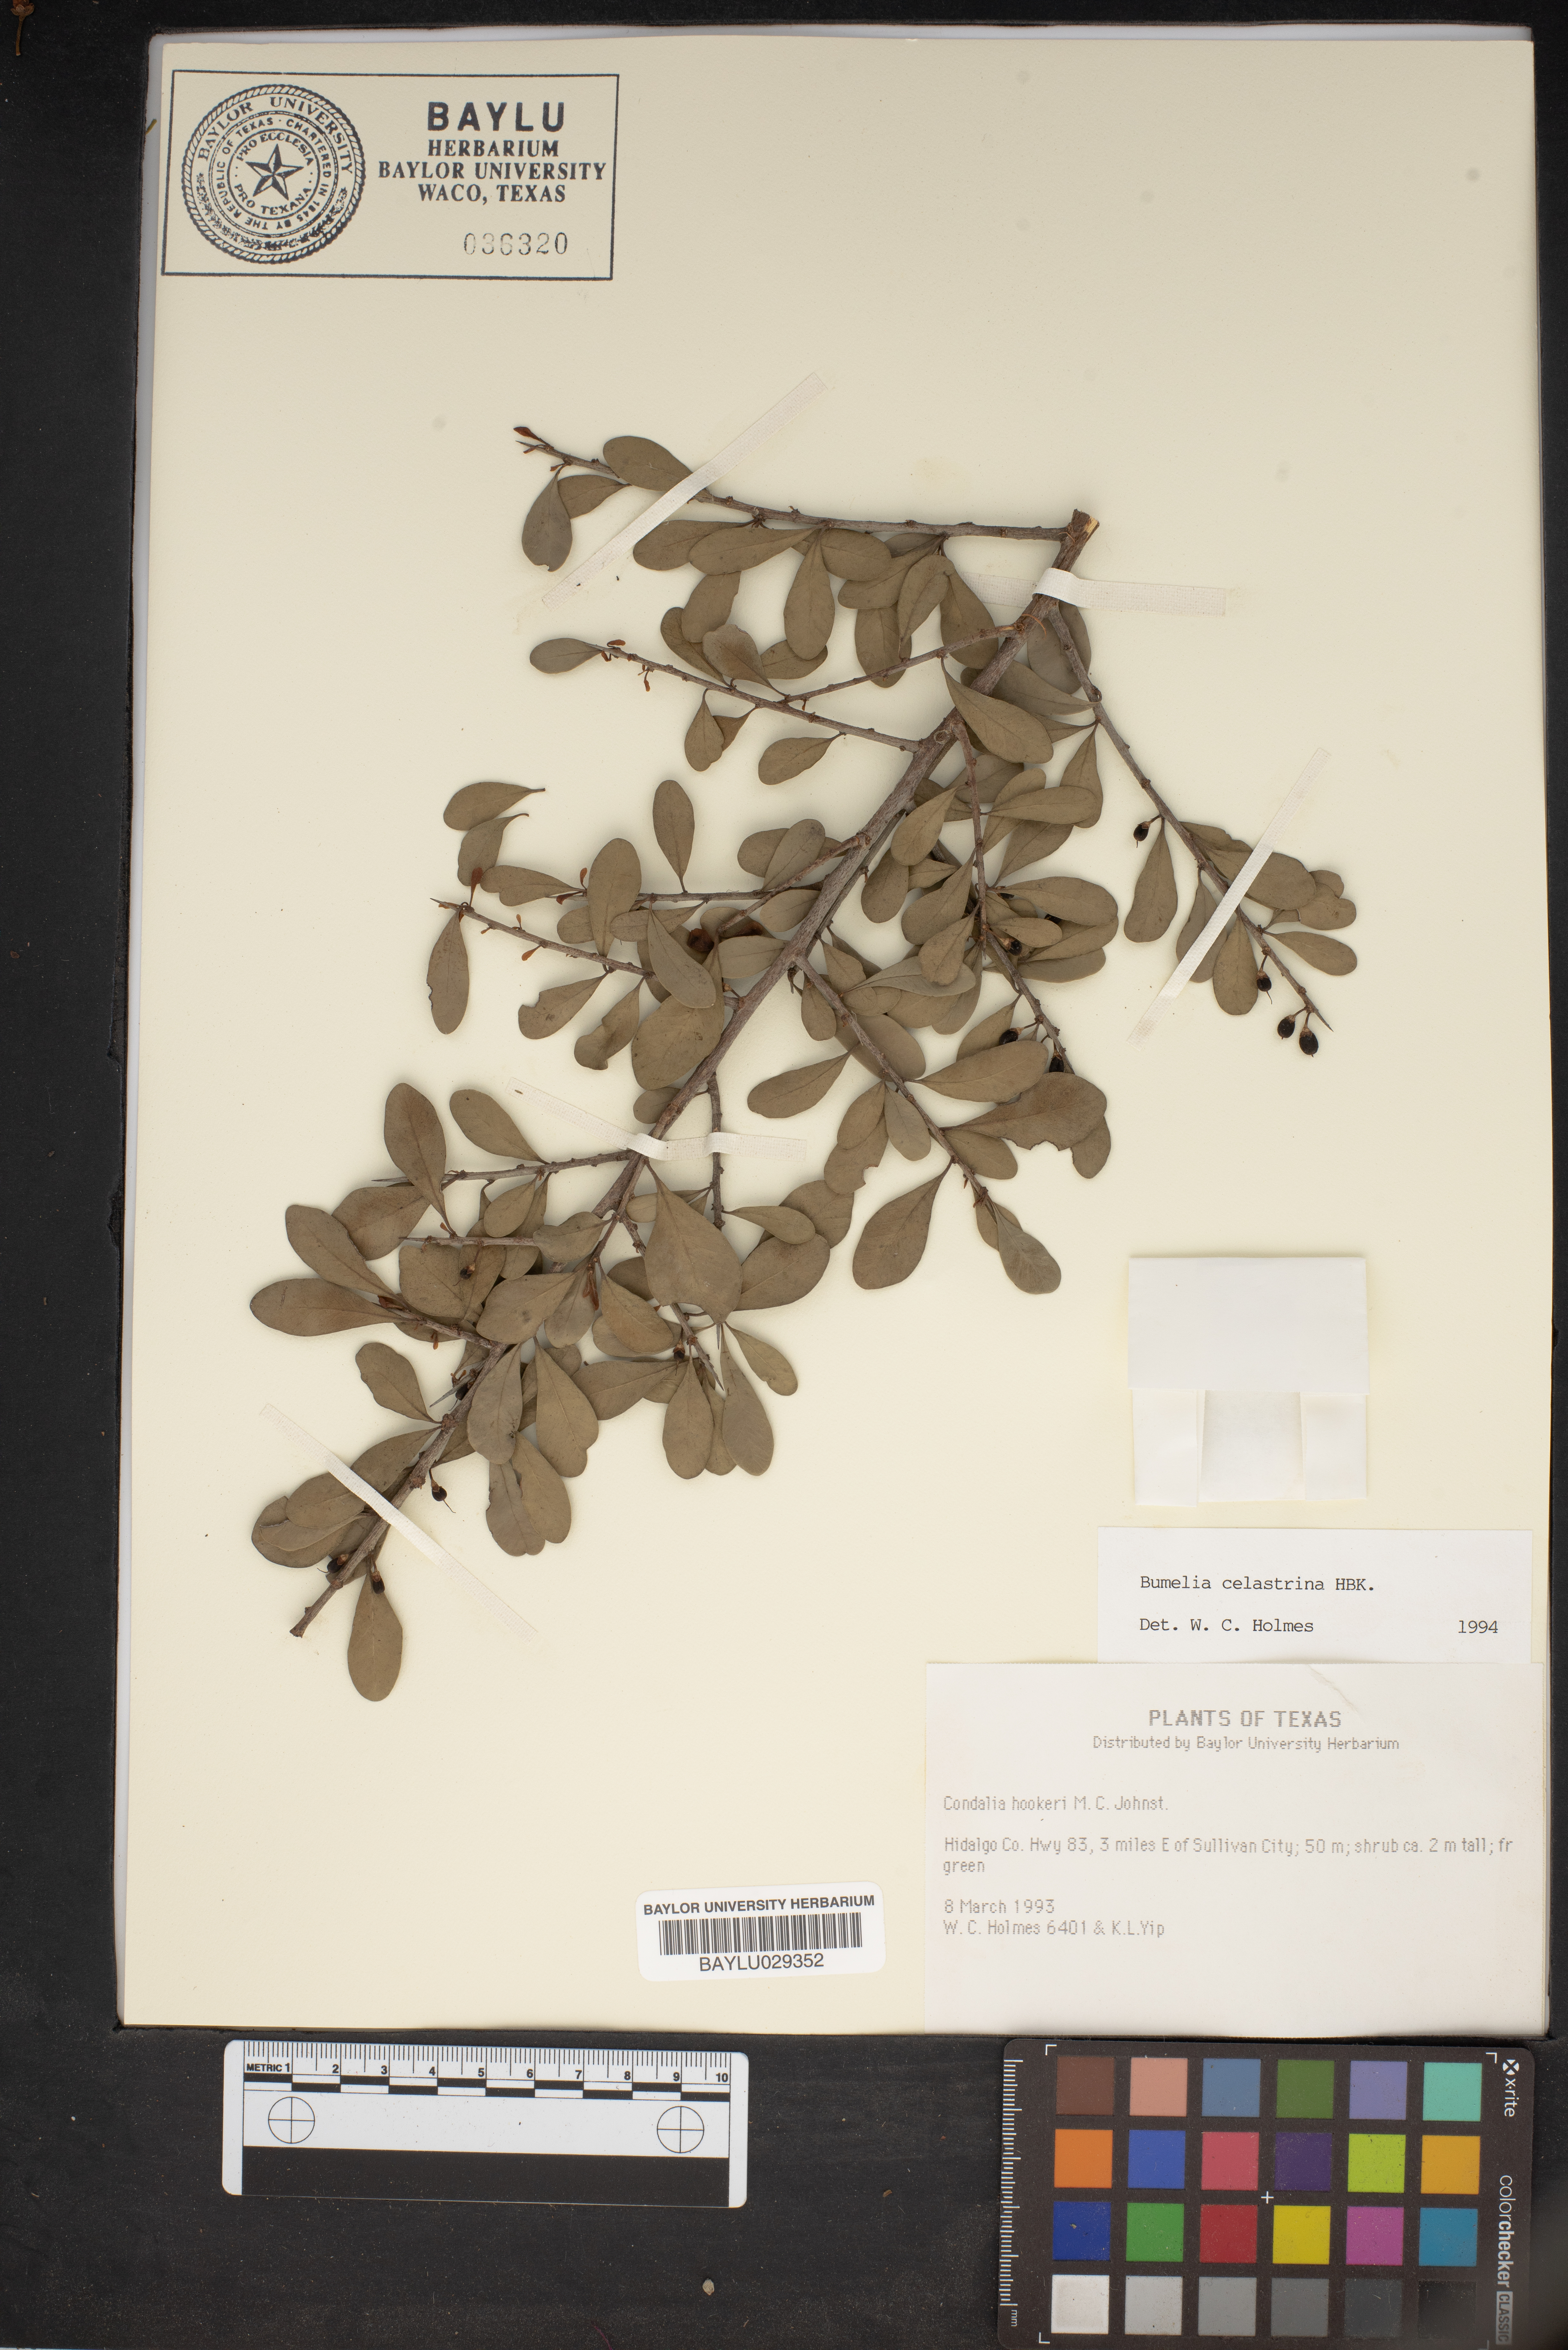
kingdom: Plantae
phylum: Tracheophyta
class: Magnoliopsida
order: Ericales
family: Sapotaceae
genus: Sideroxylon
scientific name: Sideroxylon celastrinum
